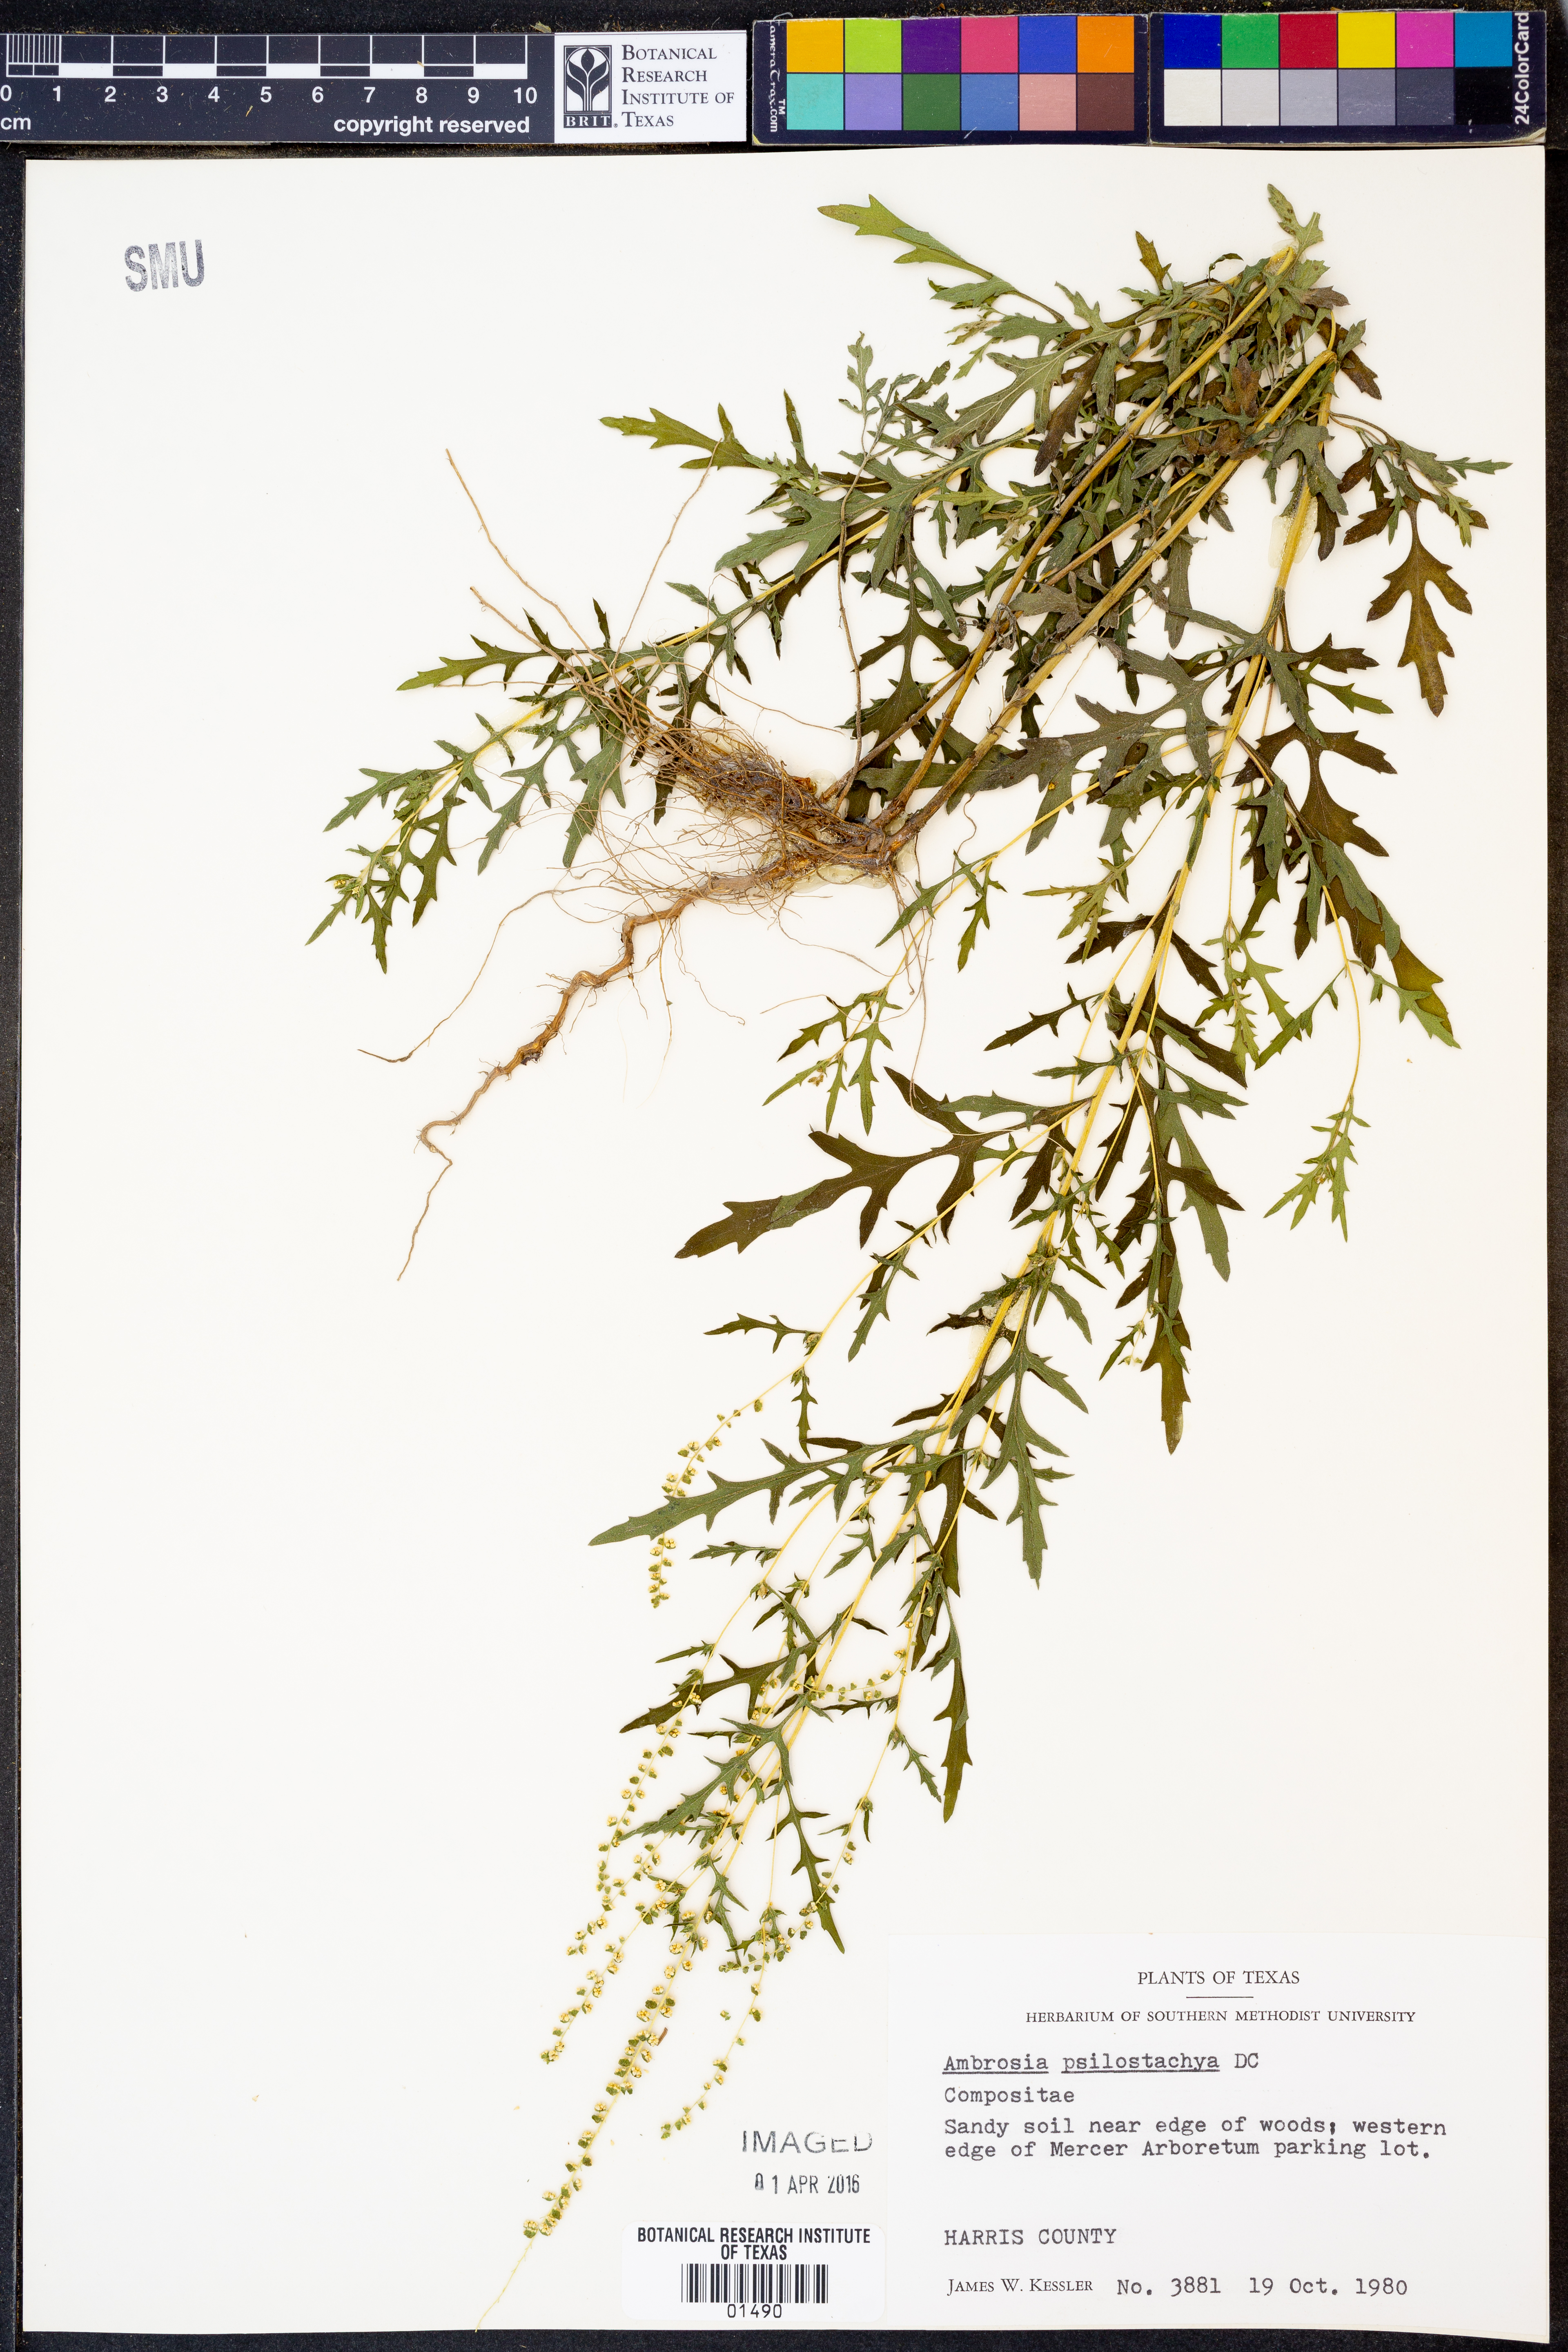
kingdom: Plantae
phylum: Tracheophyta
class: Magnoliopsida
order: Asterales
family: Asteraceae
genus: Ambrosia
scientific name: Ambrosia psilostachya
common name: Perennial ragweed
